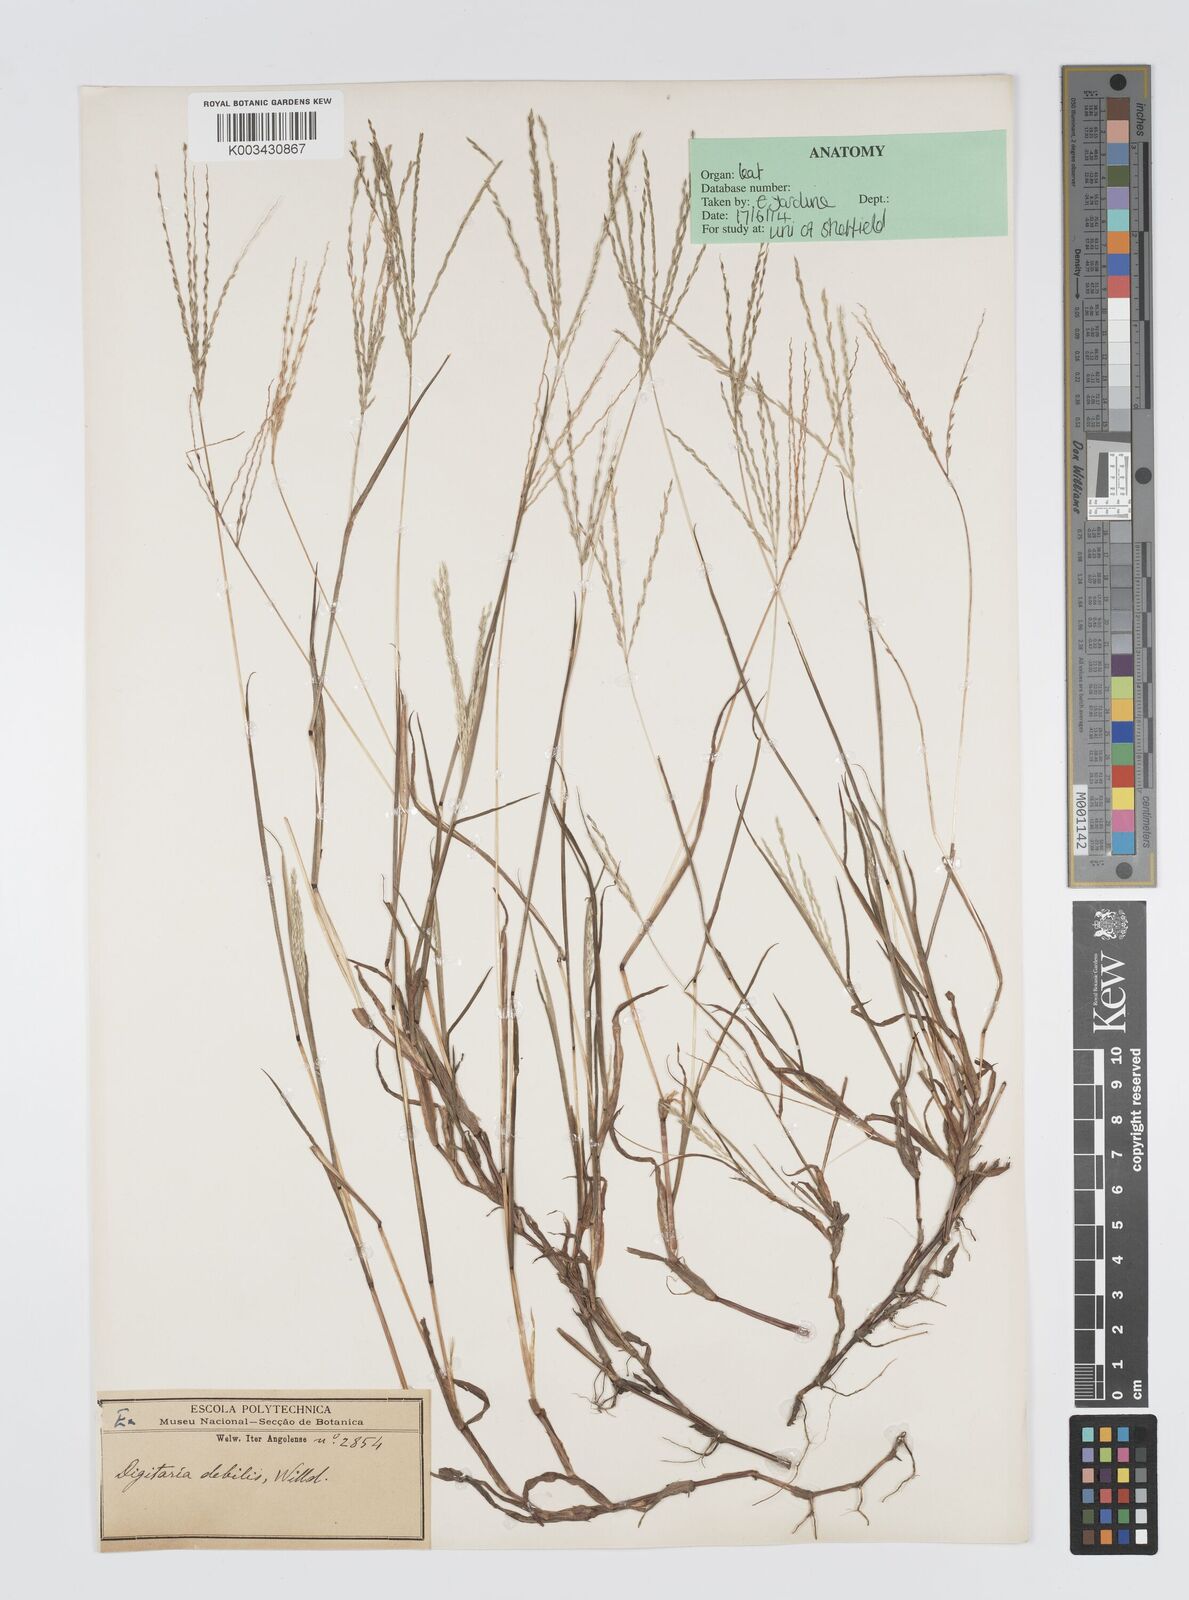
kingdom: Plantae
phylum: Tracheophyta
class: Liliopsida
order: Poales
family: Poaceae
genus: Digitaria
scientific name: Digitaria debilis
